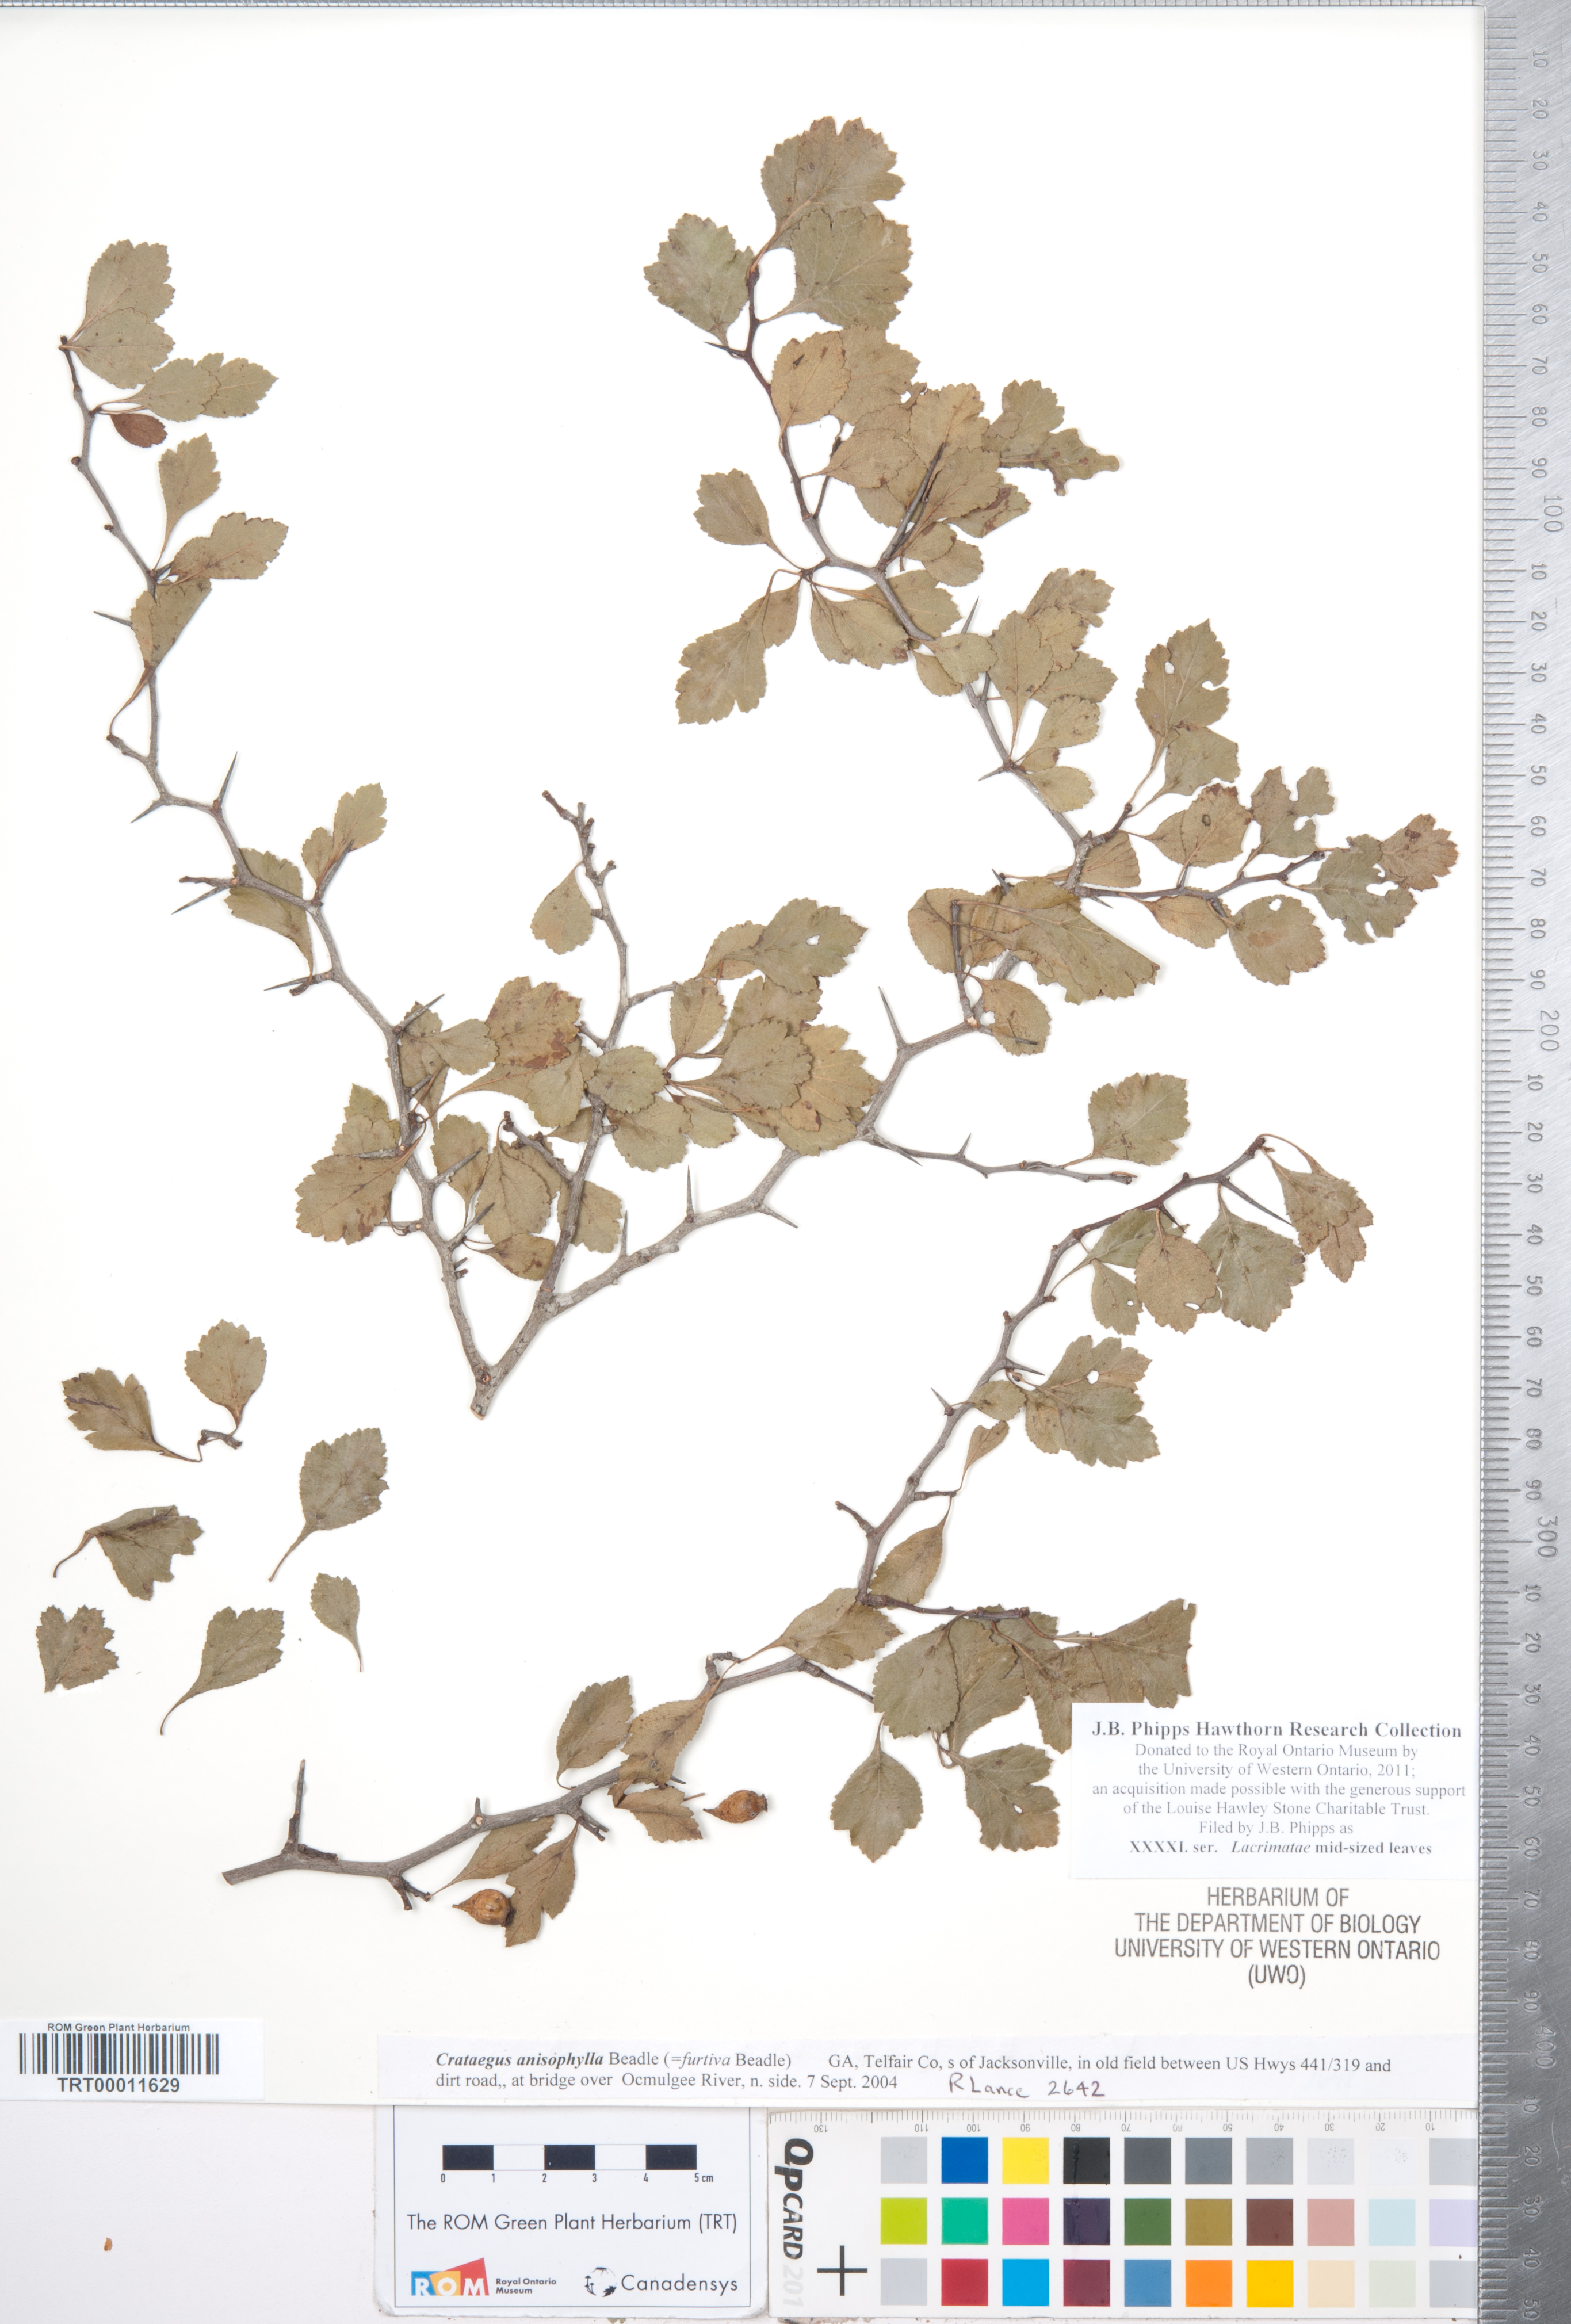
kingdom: Plantae
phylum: Tracheophyta
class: Magnoliopsida
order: Rosales
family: Rosaceae
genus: Crataegus
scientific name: Crataegus
